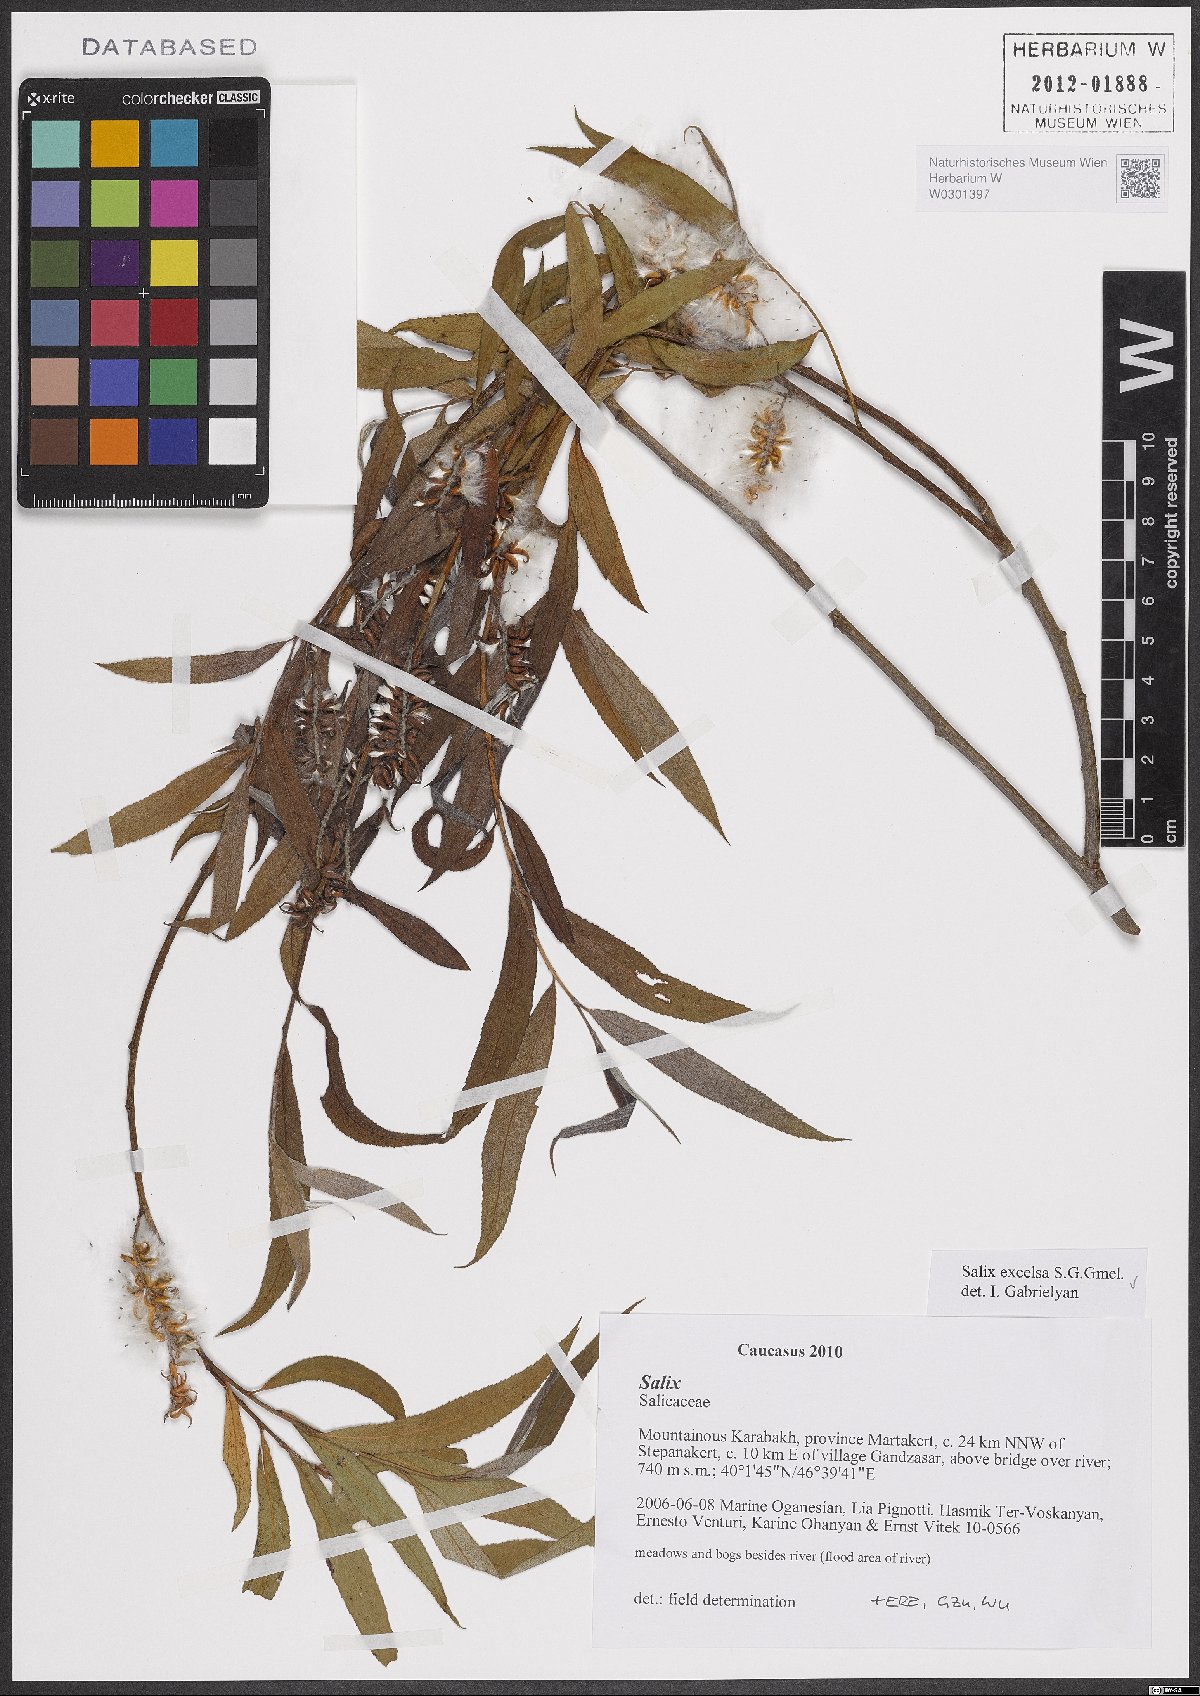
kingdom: Plantae
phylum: Tracheophyta
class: Magnoliopsida
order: Malpighiales
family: Salicaceae
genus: Salix
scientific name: Salix excelsa
